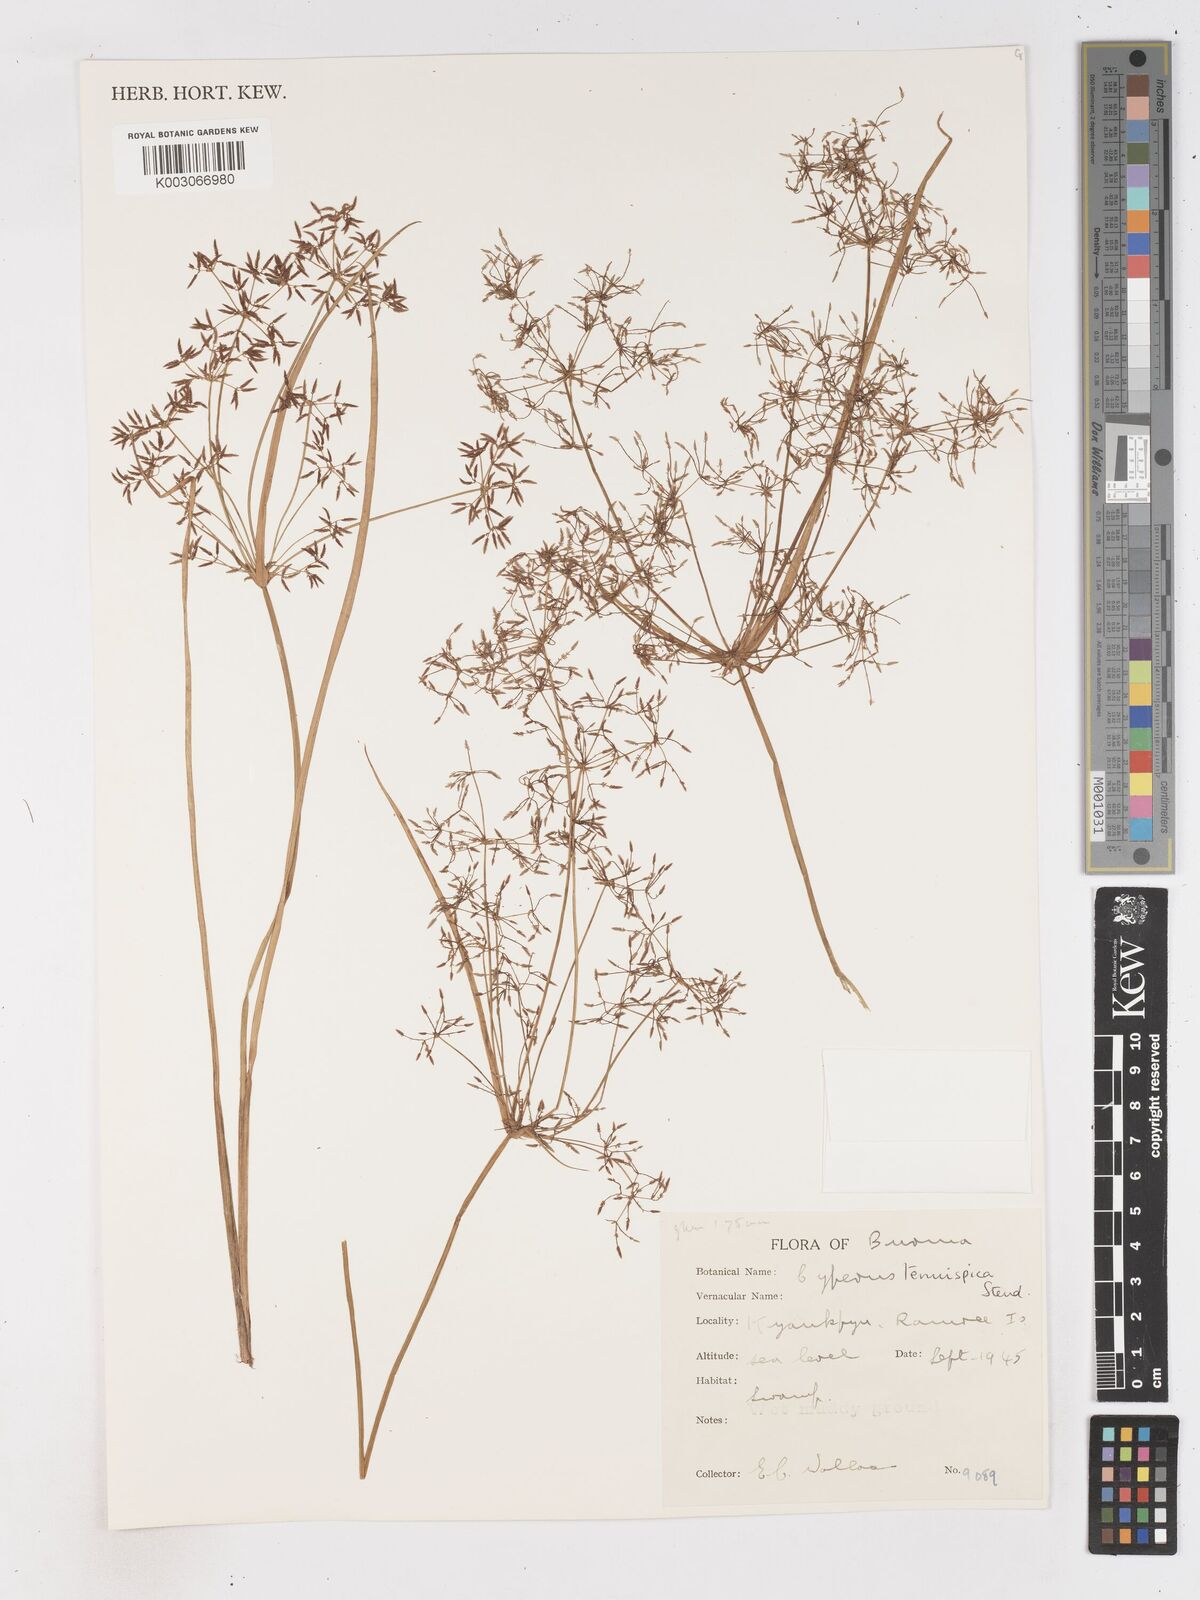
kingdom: Plantae
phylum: Tracheophyta
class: Liliopsida
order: Poales
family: Cyperaceae
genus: Cyperus
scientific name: Cyperus tenuispica
